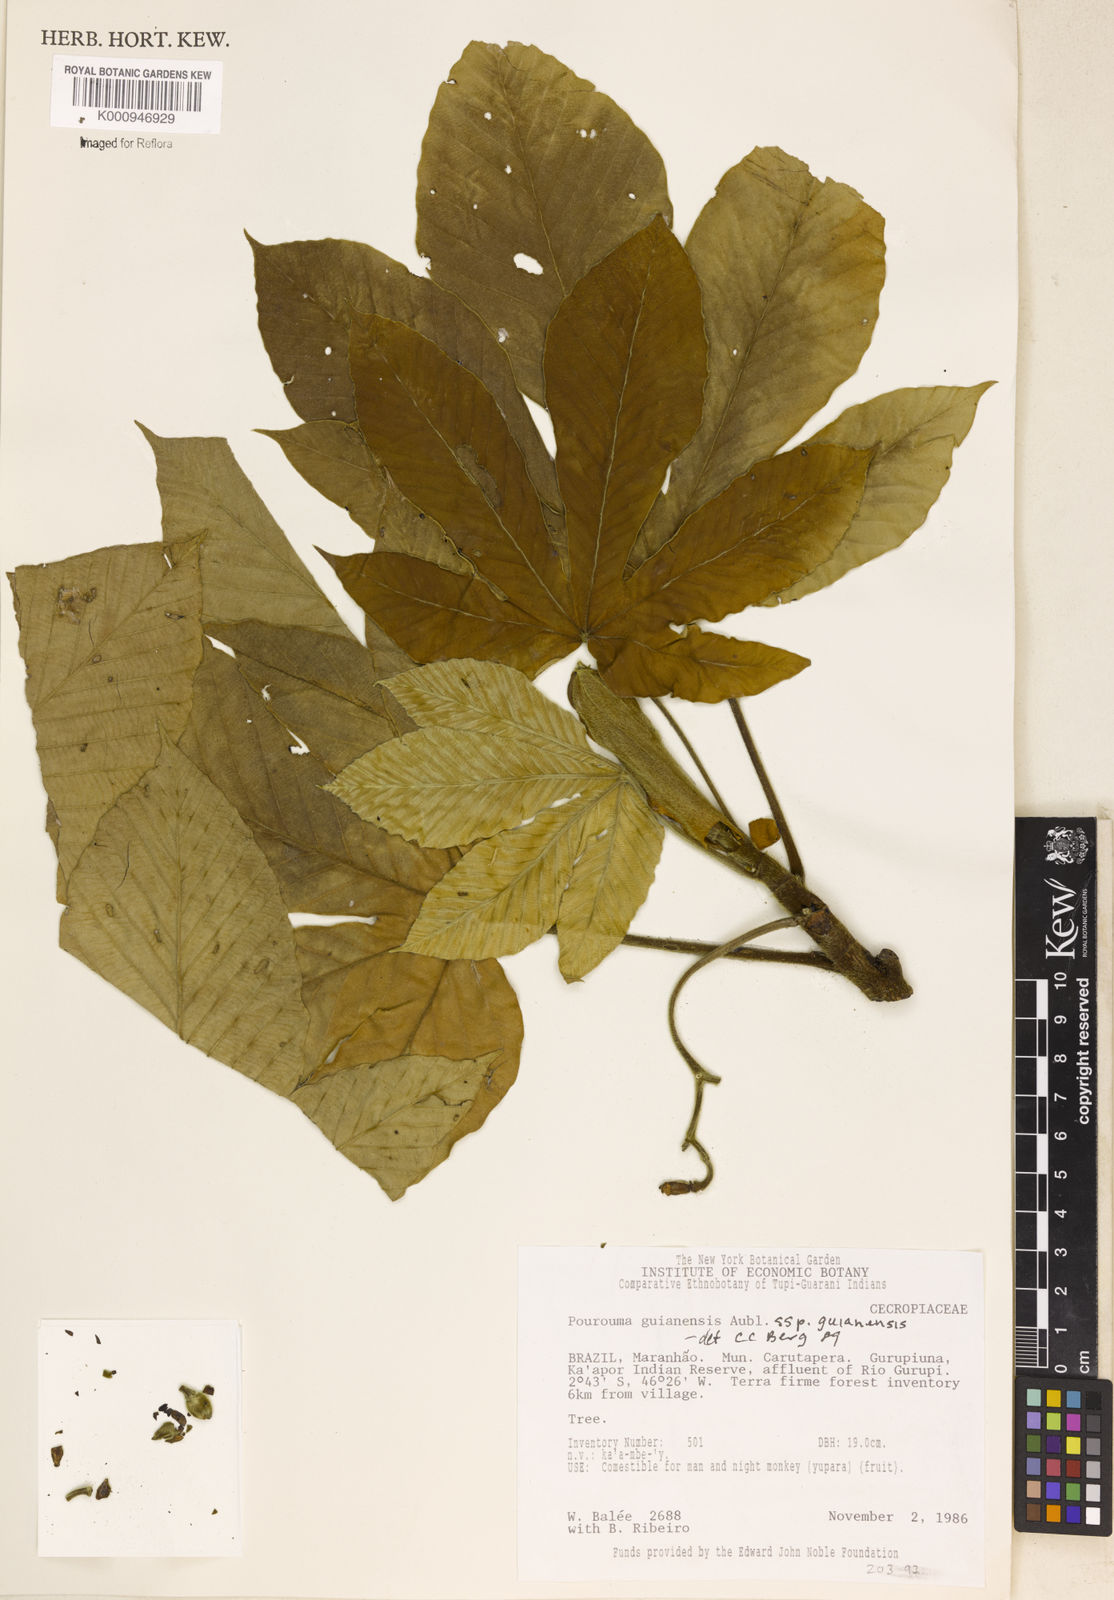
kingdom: Plantae
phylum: Tracheophyta
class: Magnoliopsida
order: Rosales
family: Urticaceae
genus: Pourouma
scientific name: Pourouma guianensis
